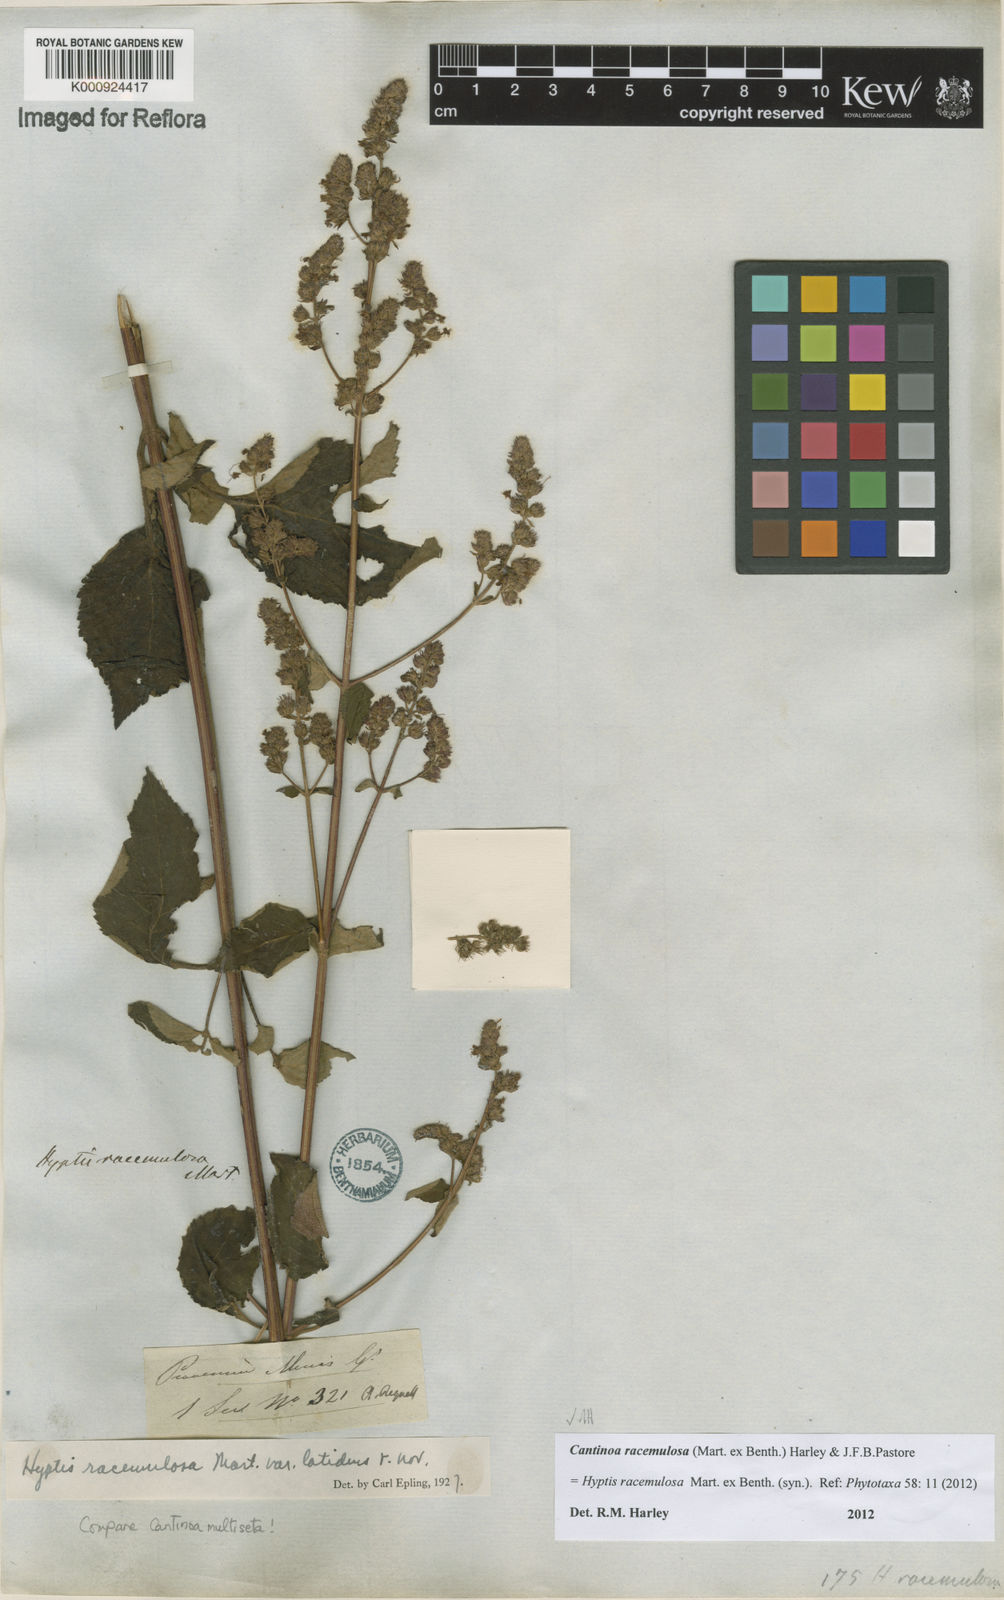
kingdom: Plantae
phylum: Tracheophyta
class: Magnoliopsida
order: Lamiales
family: Lamiaceae
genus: Cantinoa
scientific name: Cantinoa racemulosa
